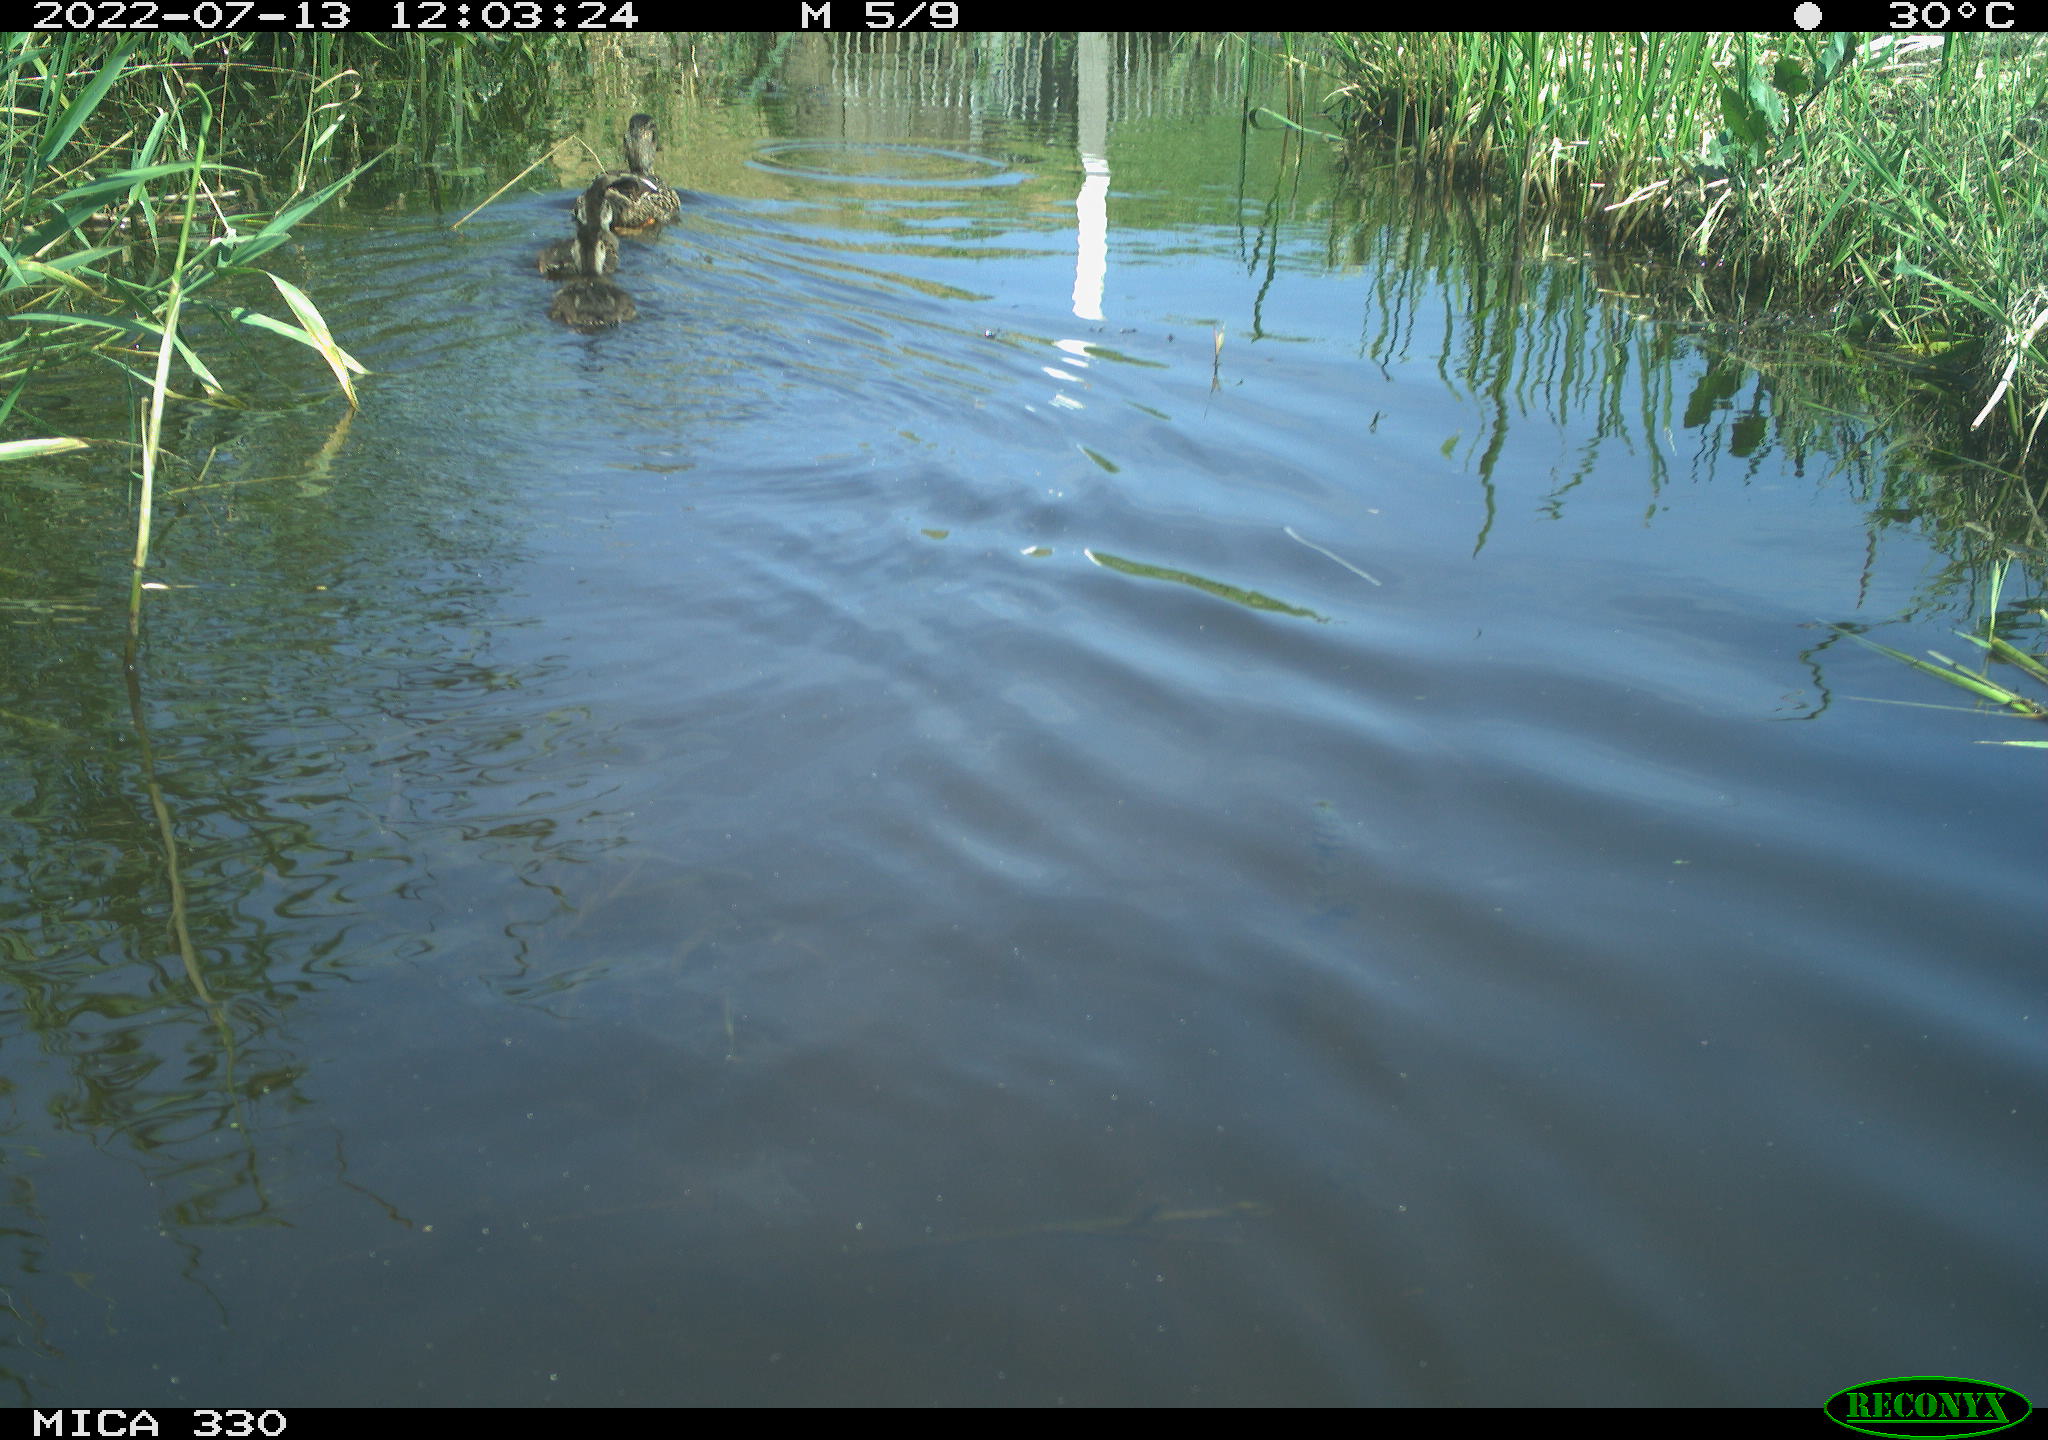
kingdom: Animalia
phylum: Chordata
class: Aves
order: Anseriformes
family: Anatidae
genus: Mareca
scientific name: Mareca strepera
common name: Gadwall
